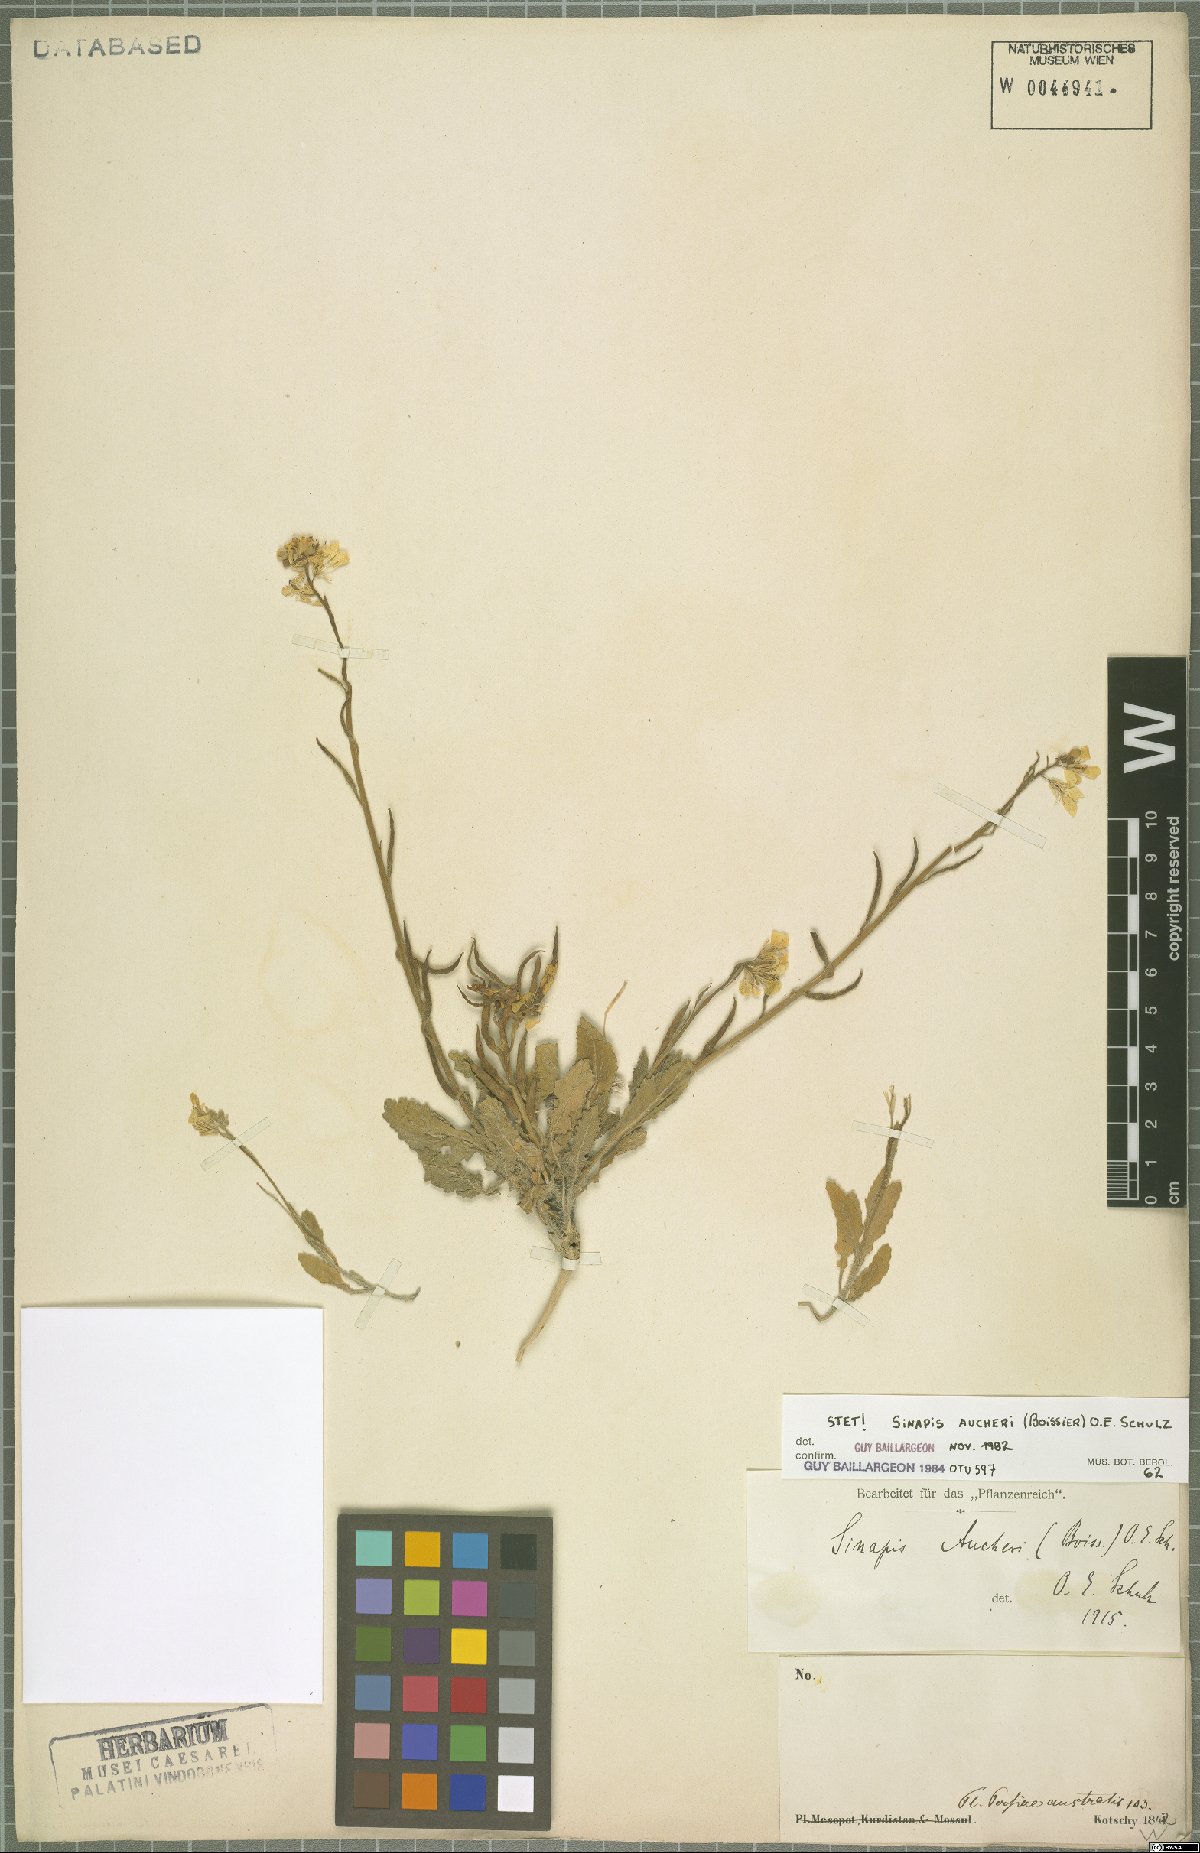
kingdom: Plantae
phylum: Tracheophyta
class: Magnoliopsida
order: Brassicales
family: Brassicaceae
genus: Brassica
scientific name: Brassica aucheri
